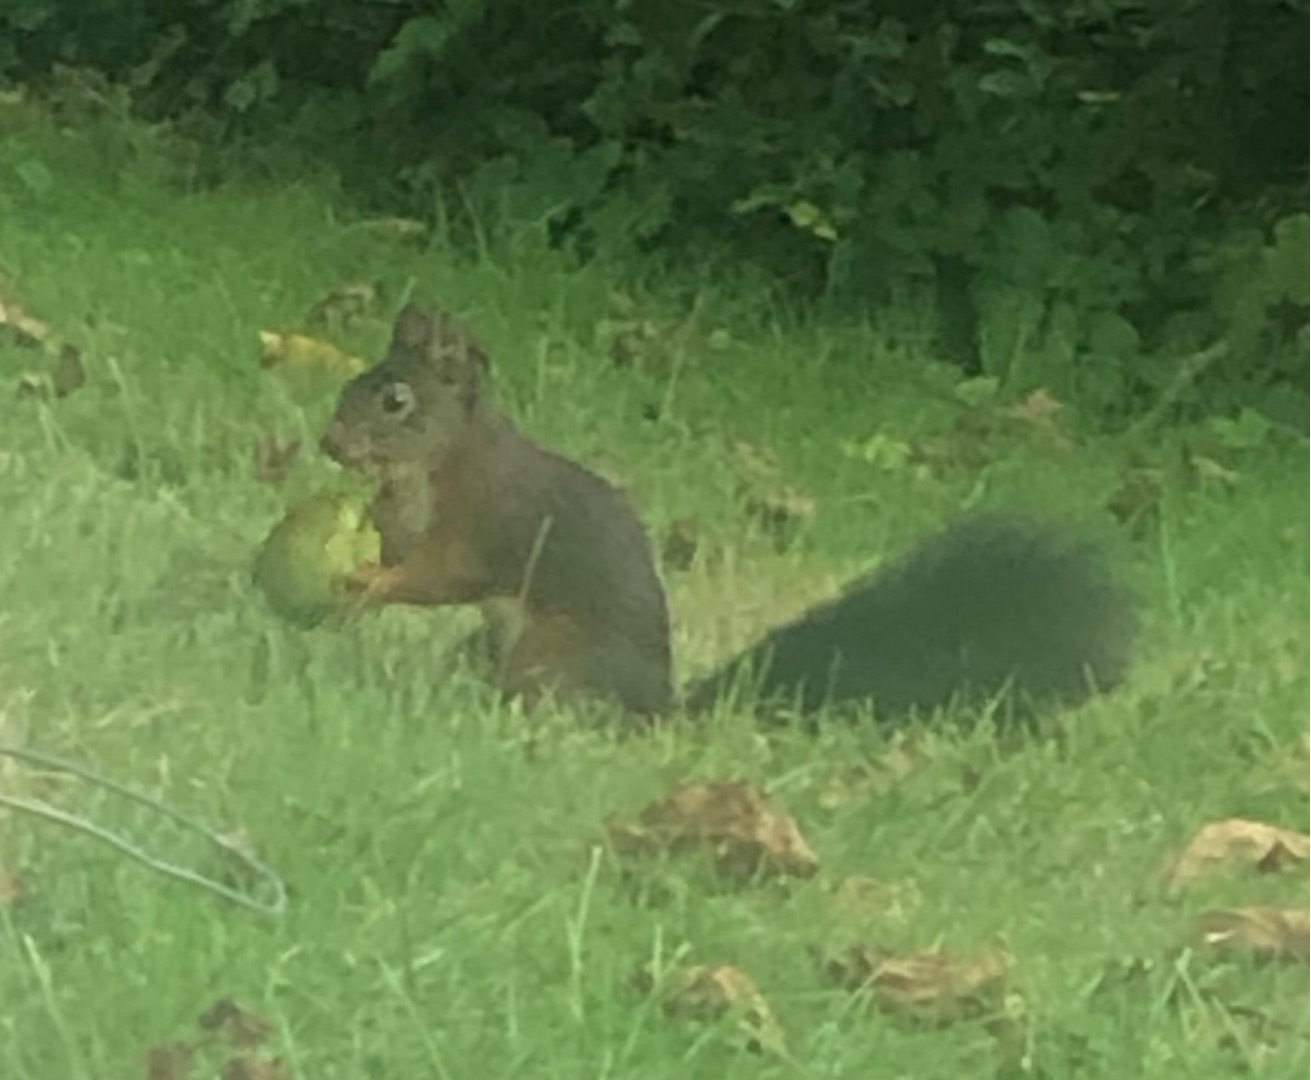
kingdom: Animalia
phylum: Chordata
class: Mammalia
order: Rodentia
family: Sciuridae
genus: Sciurus
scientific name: Sciurus vulgaris
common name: Egern
